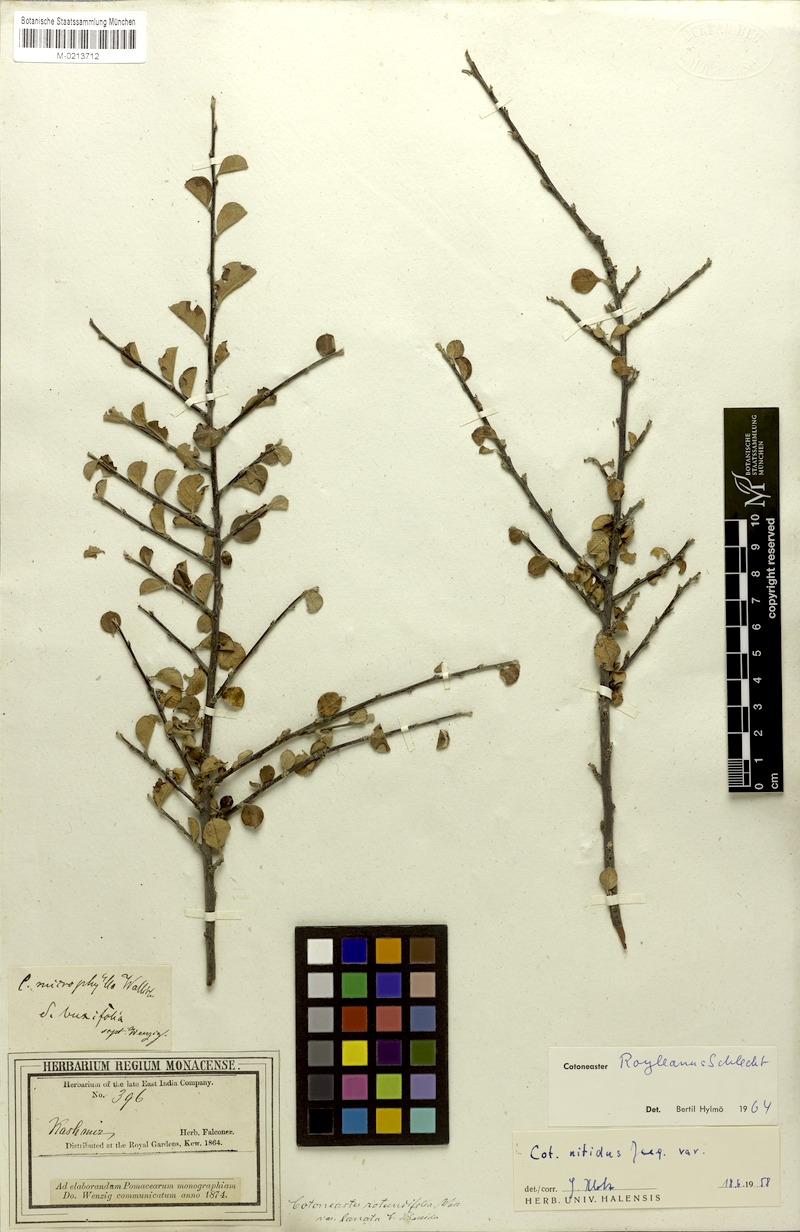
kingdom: Plantae
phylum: Tracheophyta
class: Magnoliopsida
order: Rosales
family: Rosaceae
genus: Cotoneaster
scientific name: Cotoneaster nummularius
